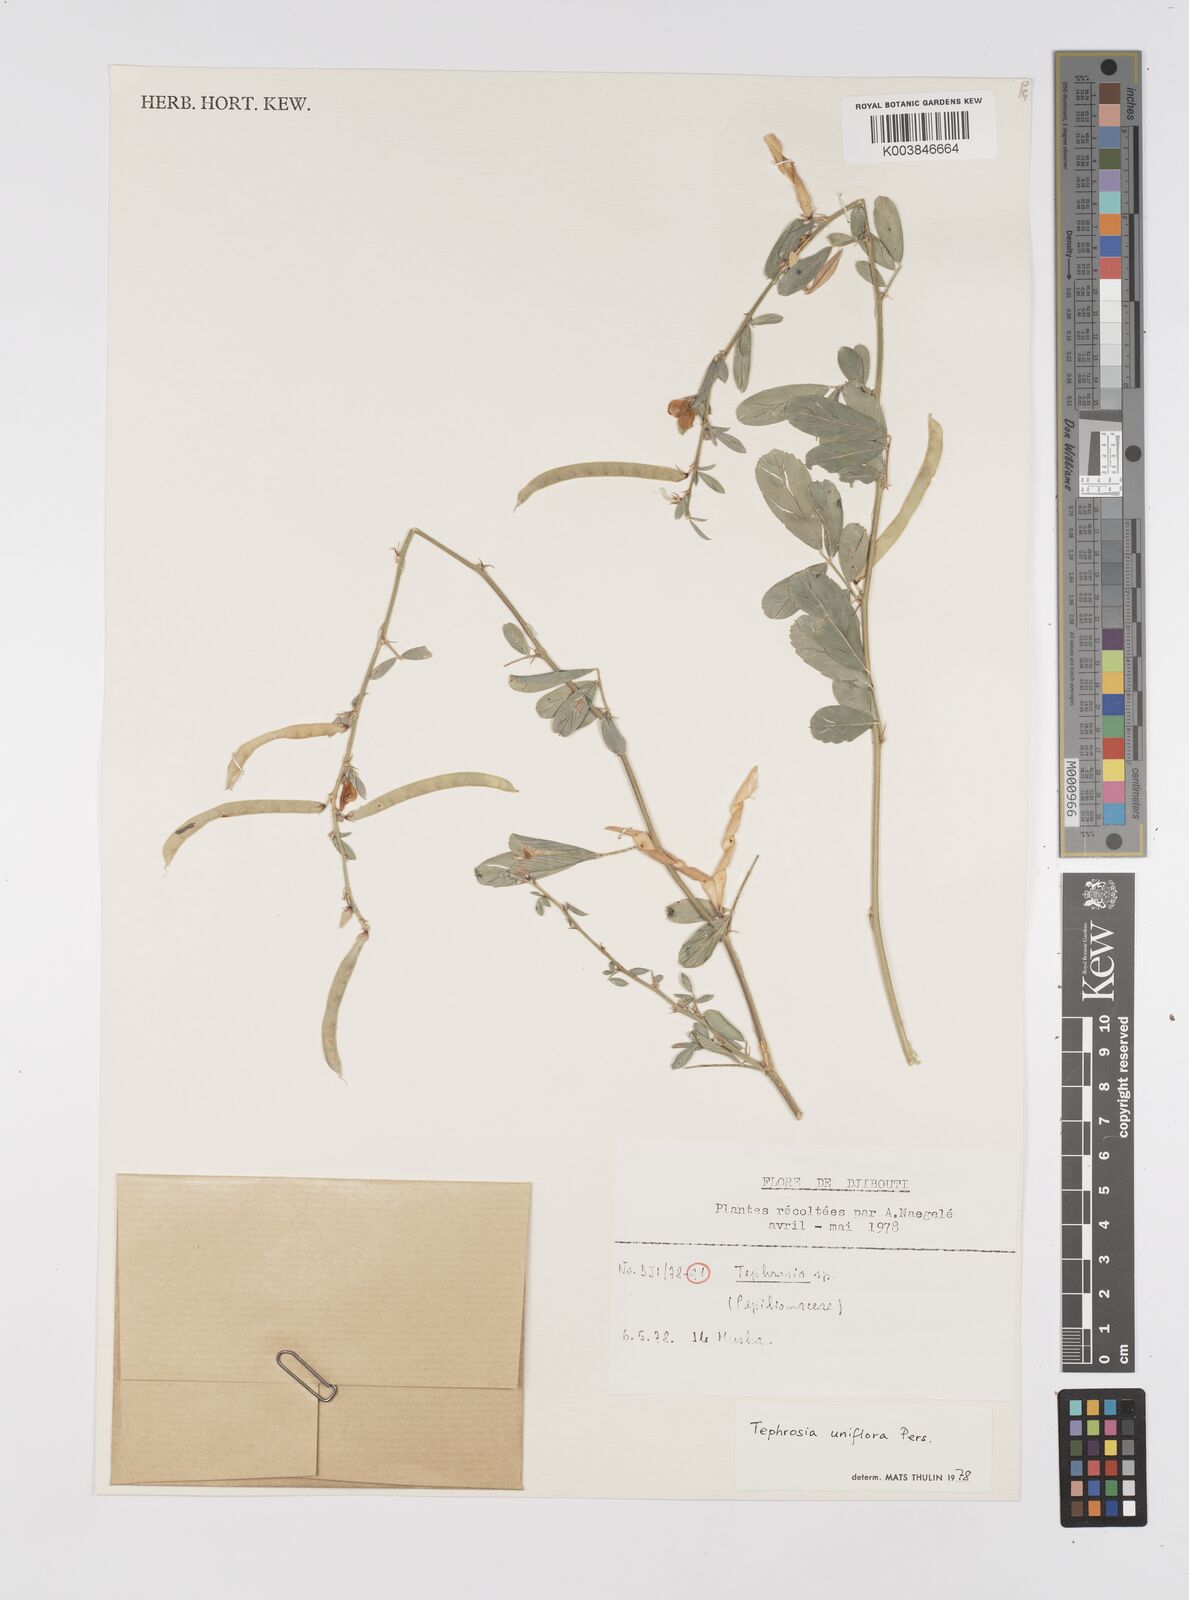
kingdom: Plantae
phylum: Tracheophyta
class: Magnoliopsida
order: Fabales
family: Fabaceae
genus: Tephrosia
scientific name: Tephrosia uniflora
